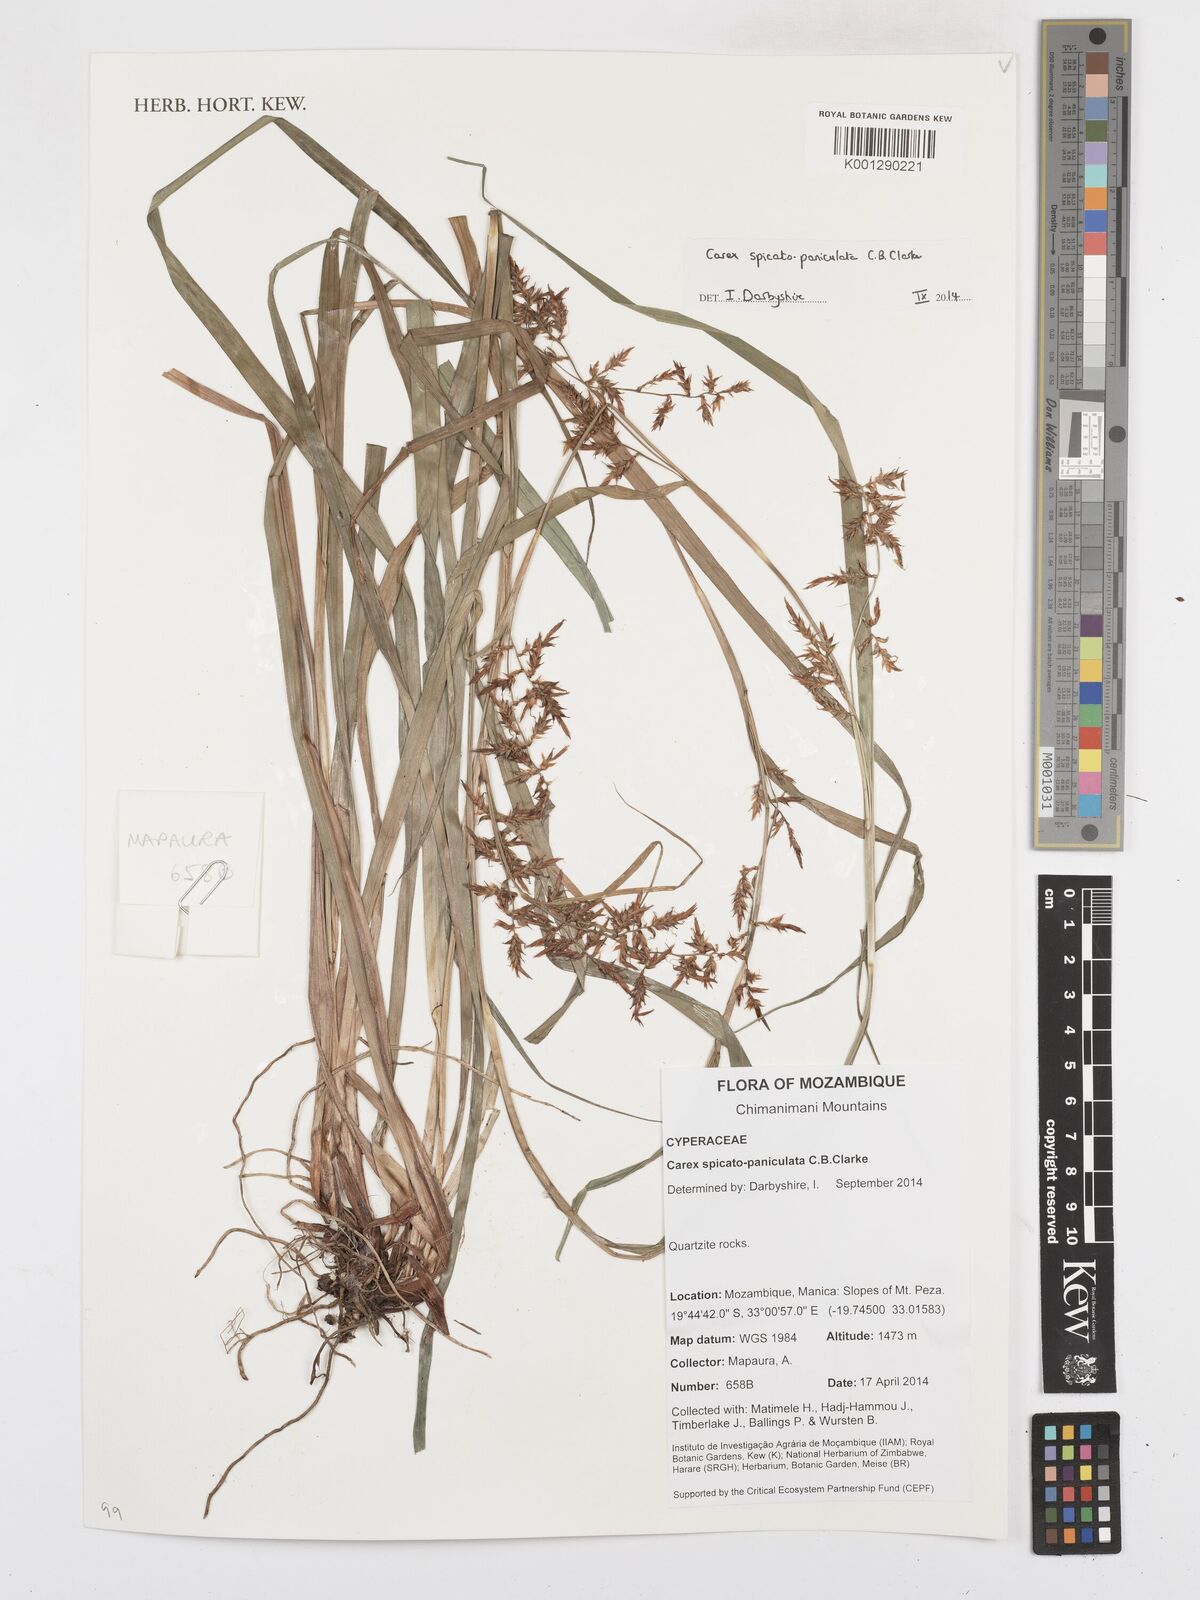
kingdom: Plantae
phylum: Tracheophyta
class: Liliopsida
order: Poales
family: Cyperaceae
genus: Carex
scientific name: Carex spicatopaniculata
